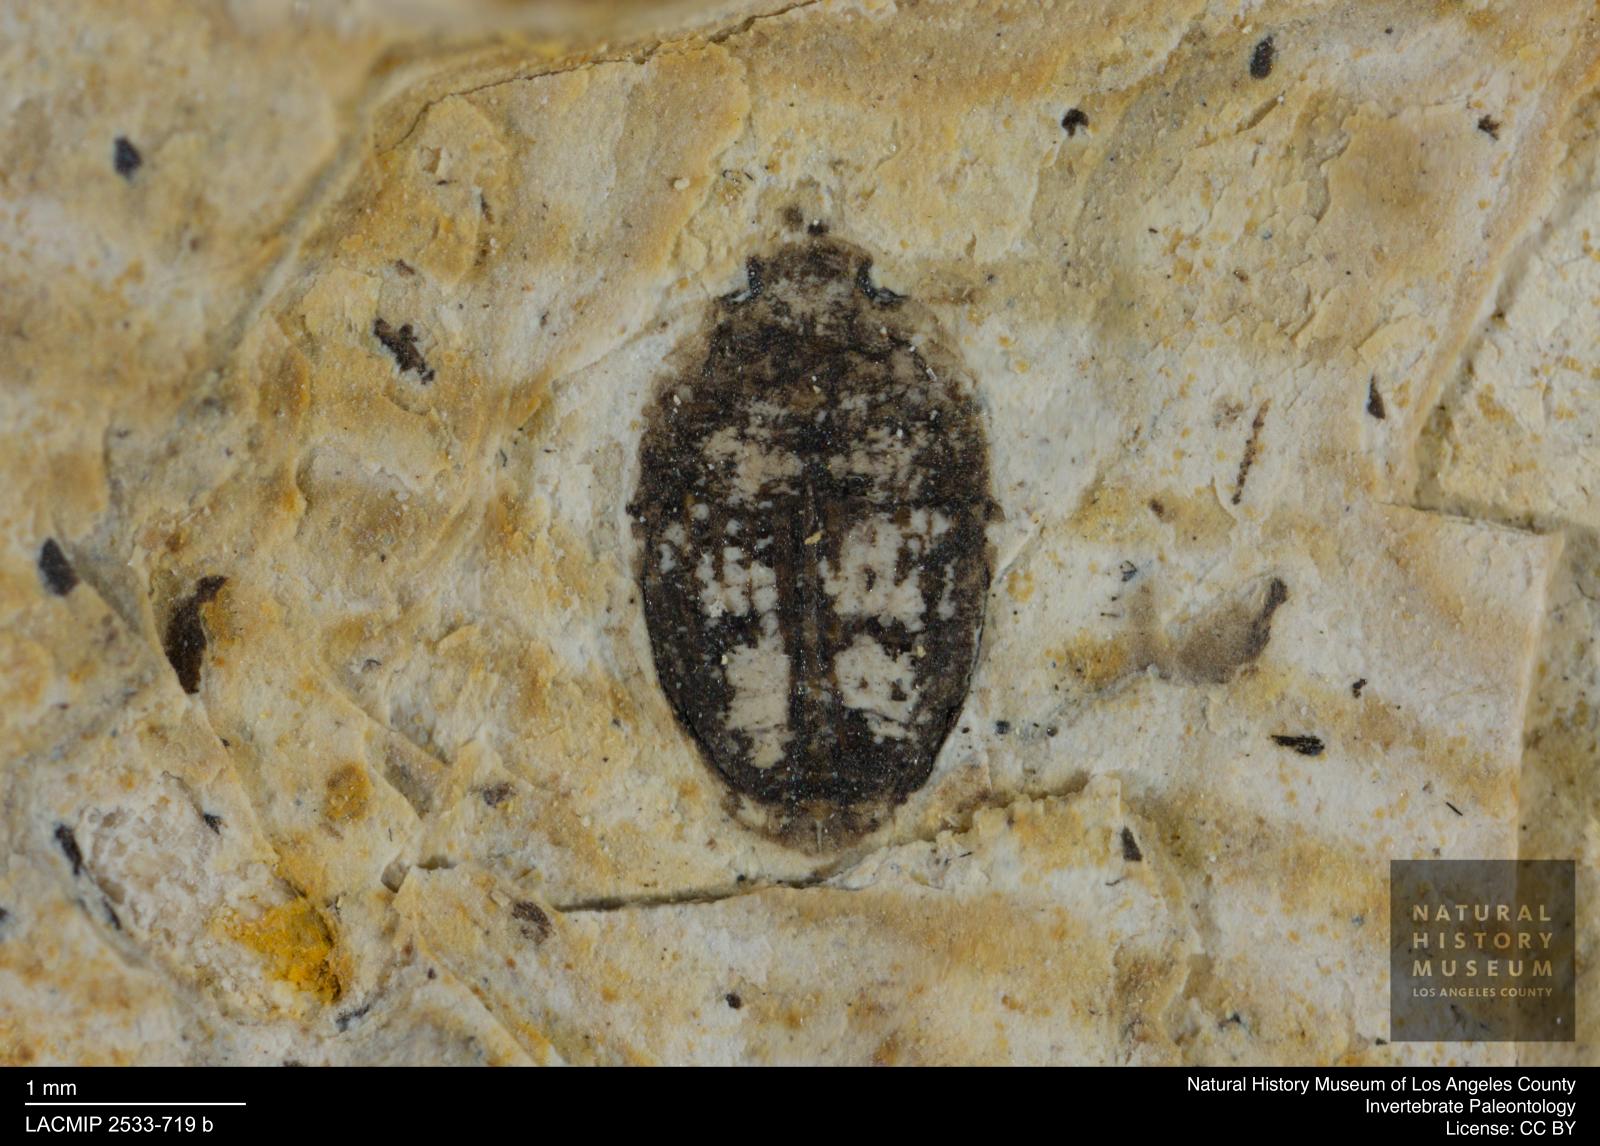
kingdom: Animalia
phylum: Arthropoda
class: Insecta
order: Coleoptera
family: Dytiscidae
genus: Oreodytes
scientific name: Oreodytes cryptolineatus
